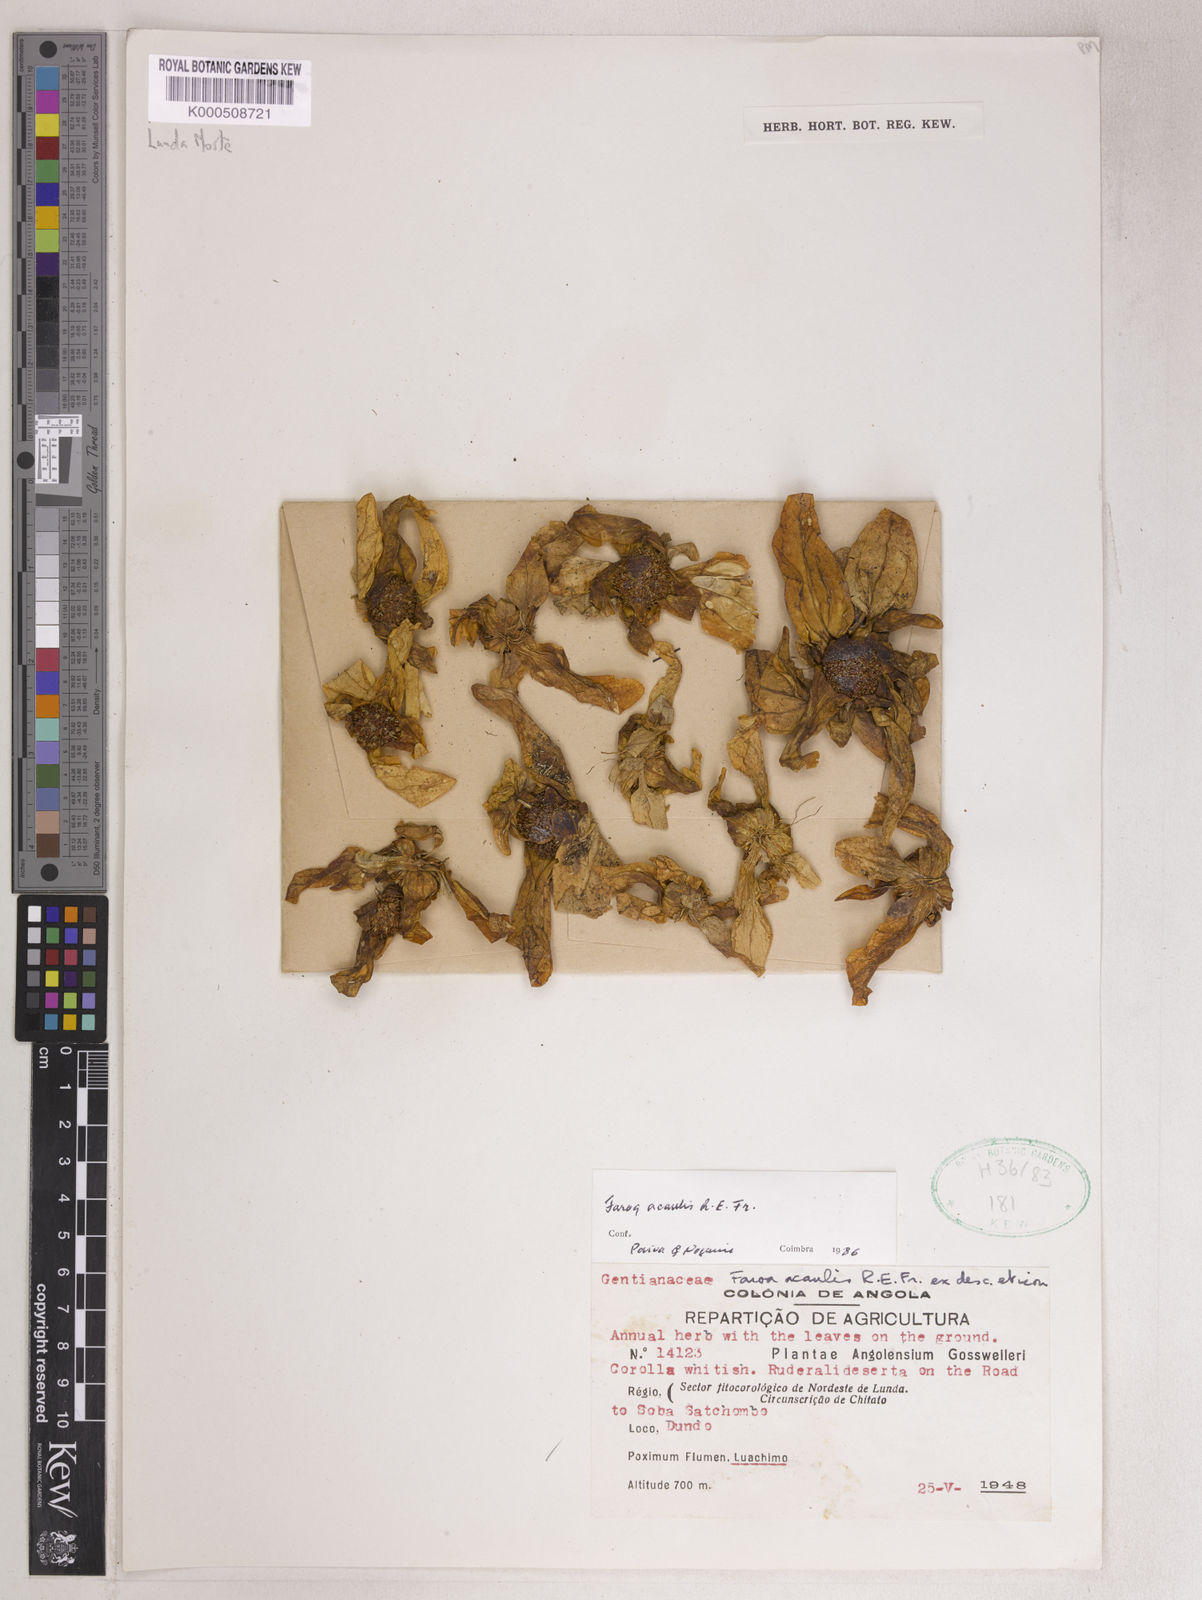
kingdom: Plantae
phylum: Tracheophyta
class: Magnoliopsida
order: Gentianales
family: Gentianaceae
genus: Faroa
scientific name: Faroa acaulis
